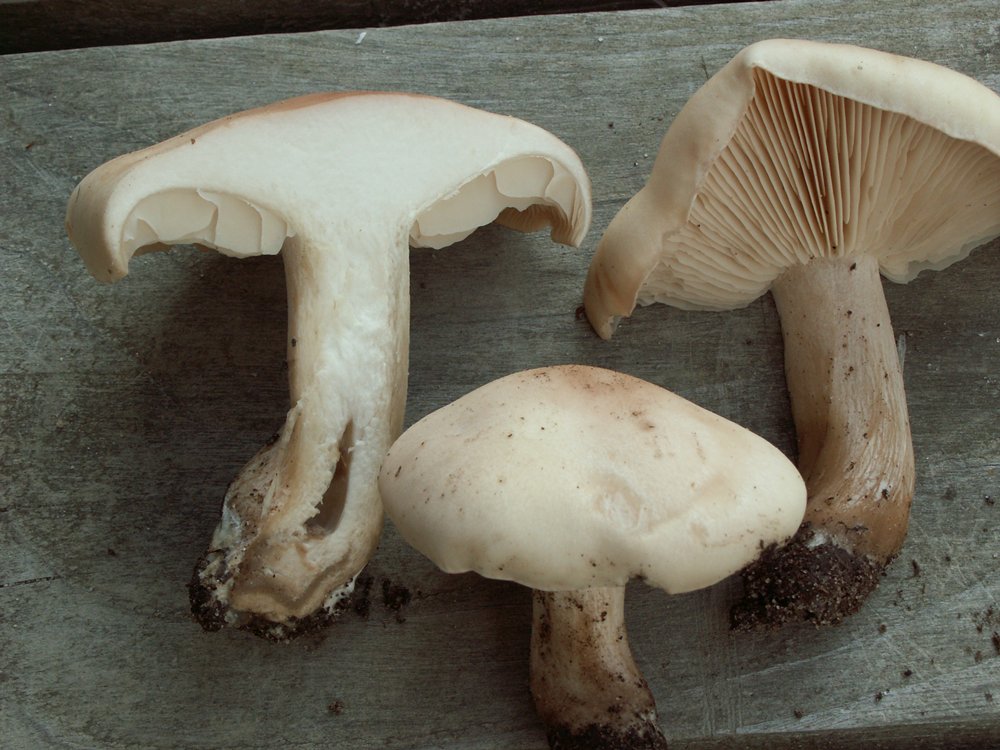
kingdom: Fungi
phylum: Basidiomycota
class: Agaricomycetes
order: Agaricales
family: Tricholomataceae
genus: Lepista
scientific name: Lepista irina
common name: violduftende hekseringshat
